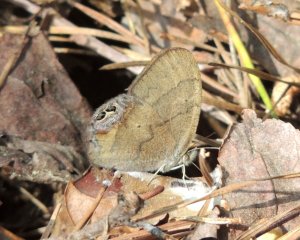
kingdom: Animalia
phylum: Arthropoda
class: Insecta
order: Lepidoptera
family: Nymphalidae
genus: Euptychia
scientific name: Euptychia cornelius
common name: Gemmed Satyr
